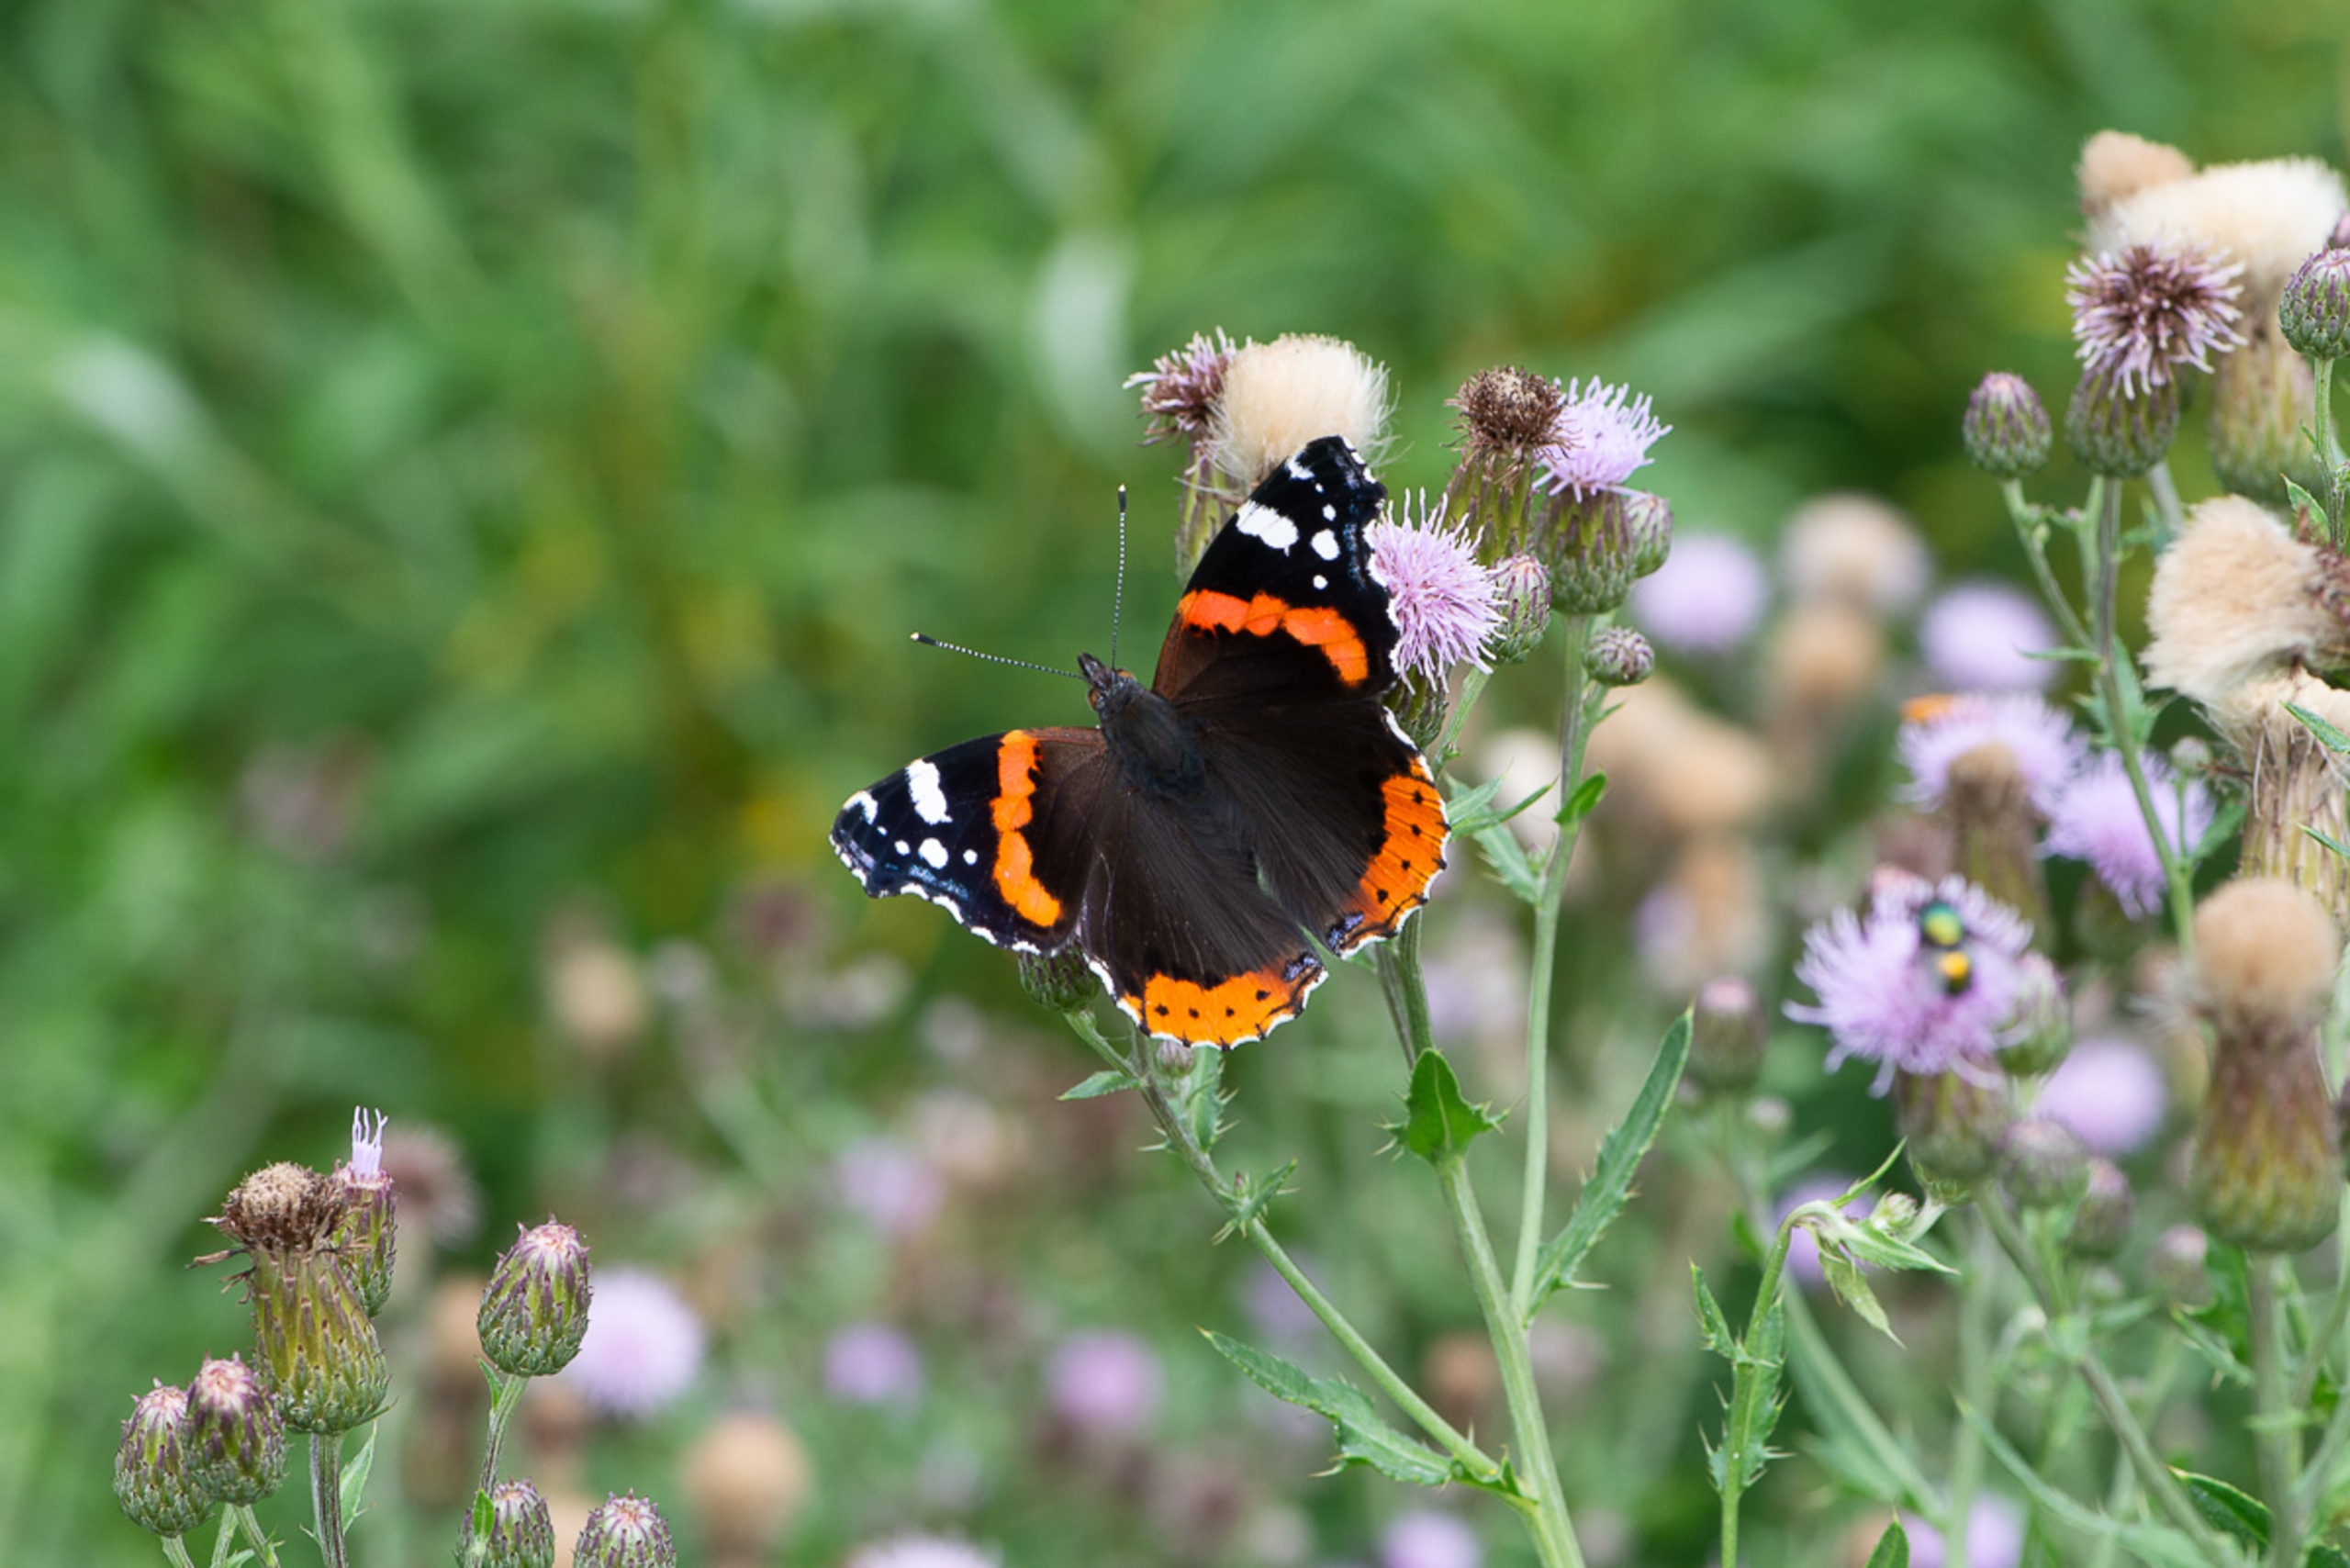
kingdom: Animalia
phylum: Arthropoda
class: Insecta
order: Lepidoptera
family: Nymphalidae
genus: Vanessa
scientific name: Vanessa atalanta
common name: Admiral
